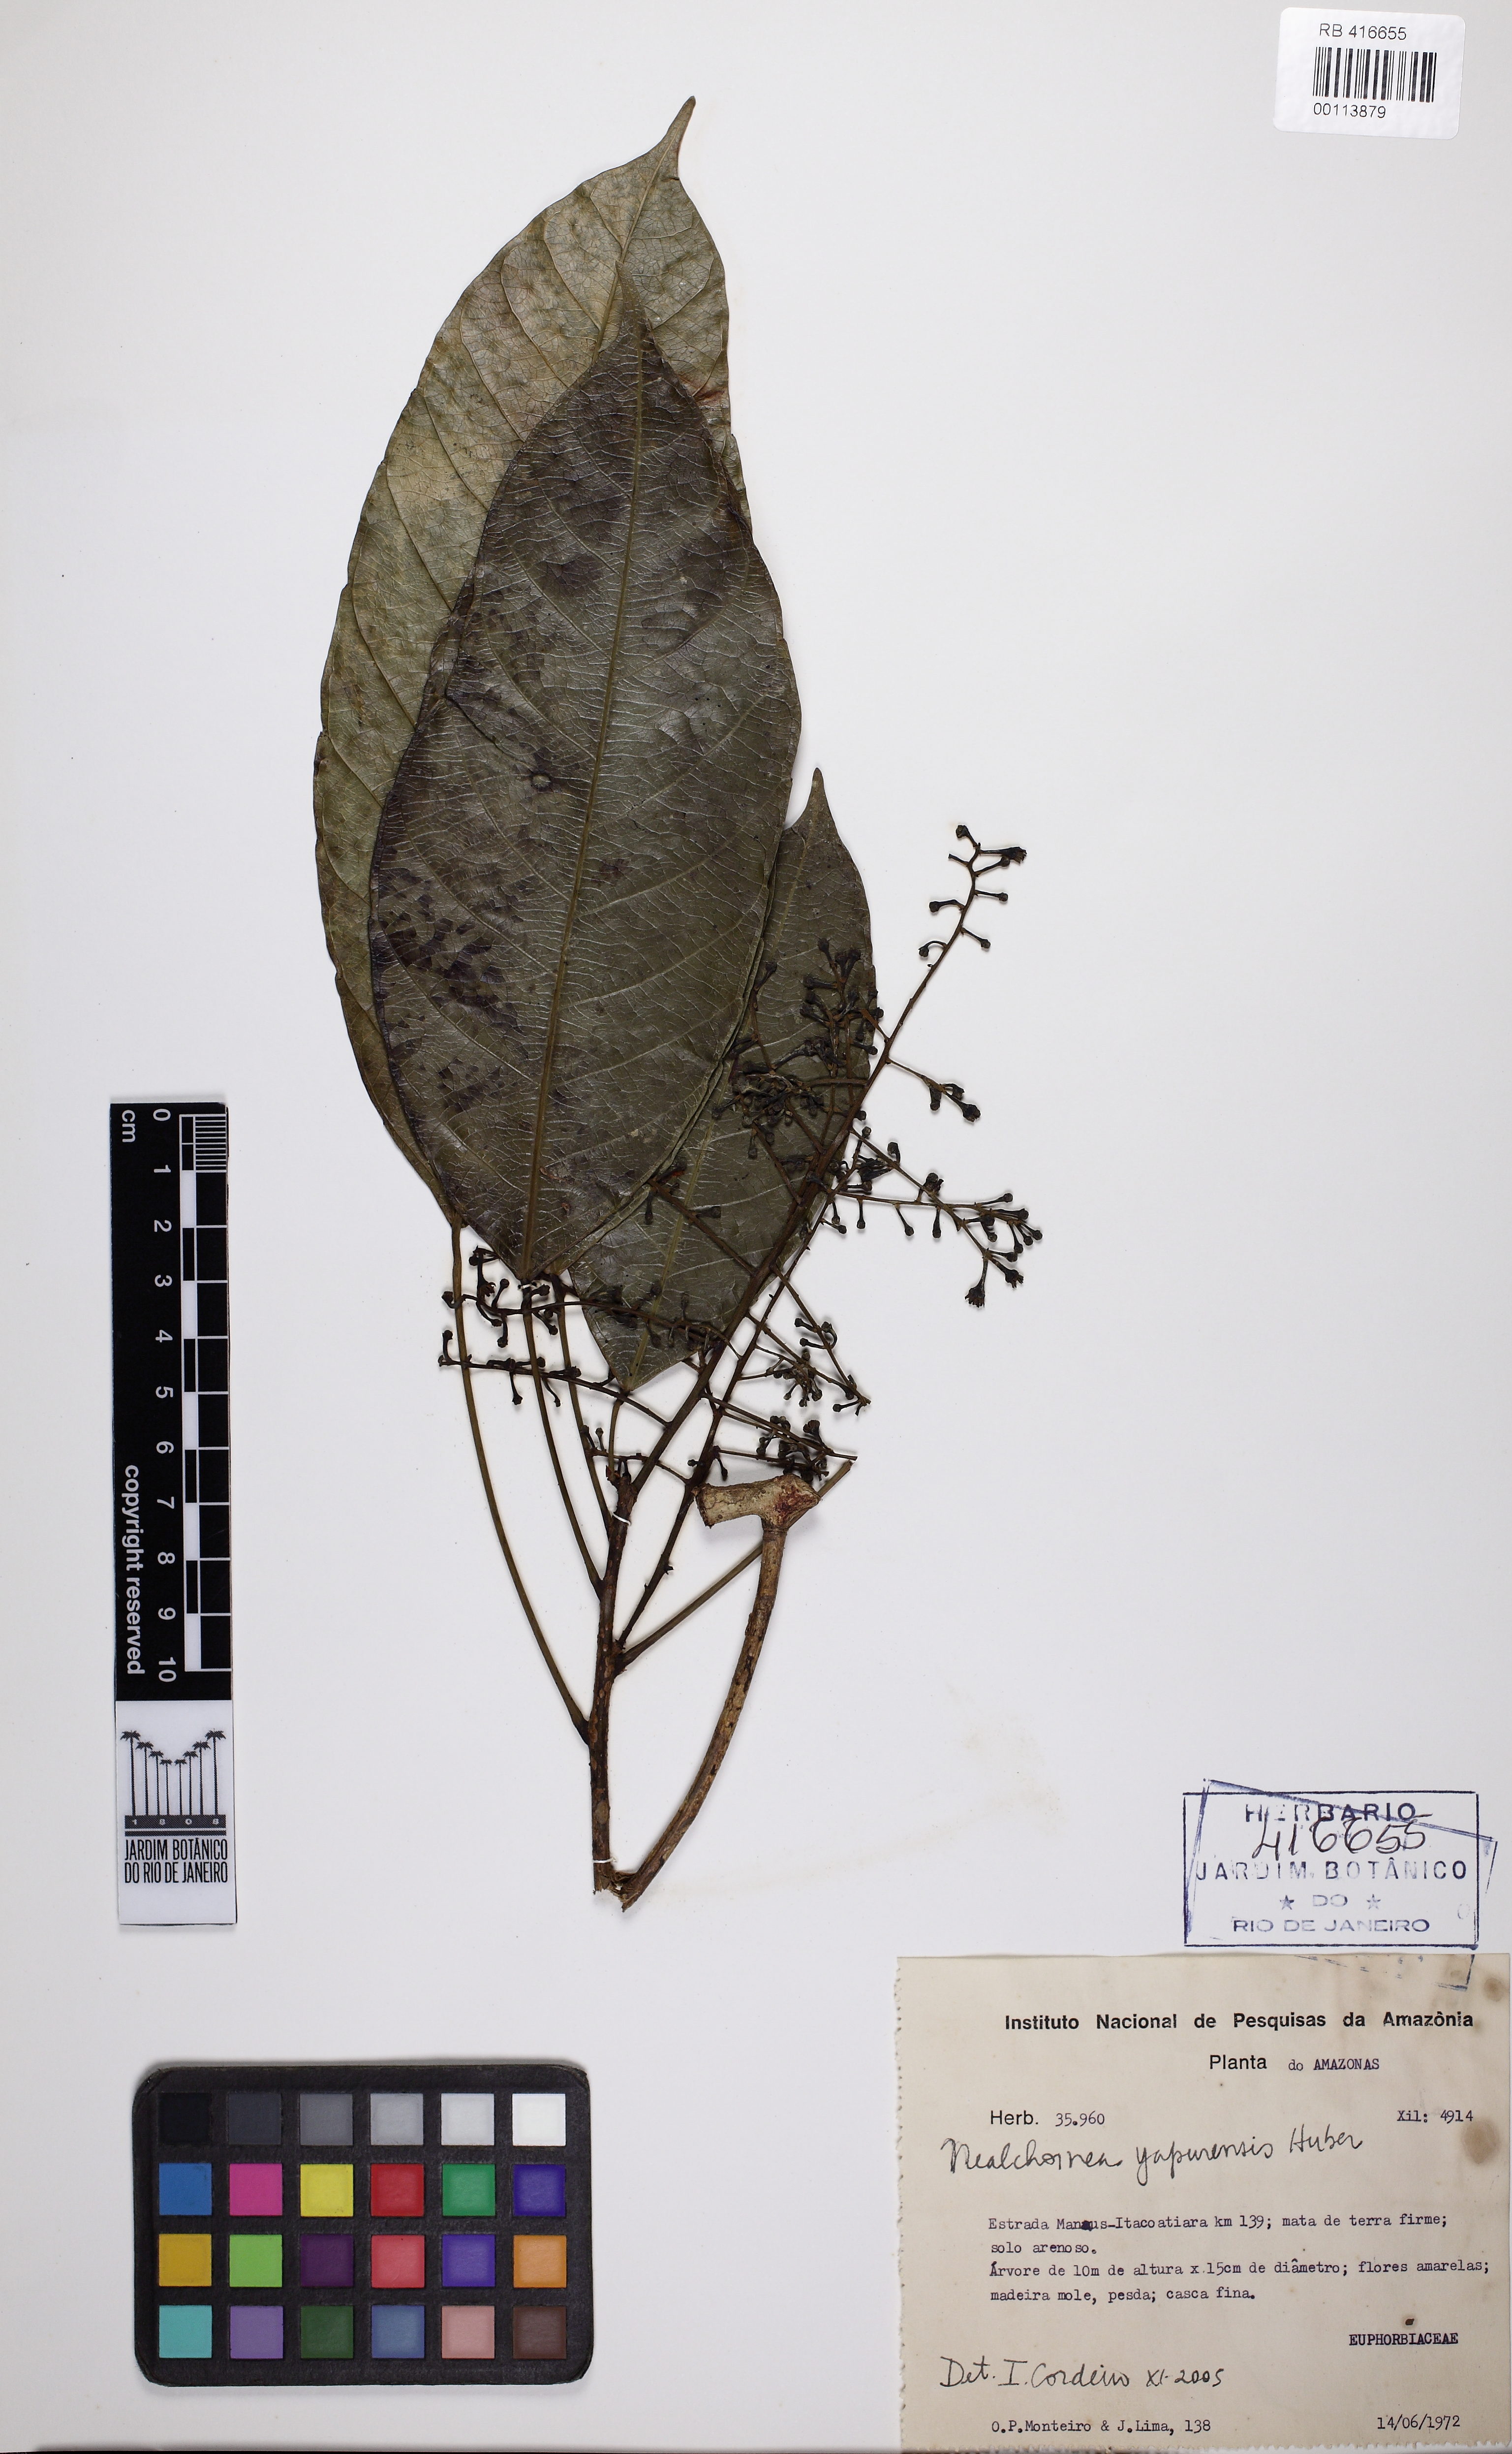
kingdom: Plantae
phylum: Tracheophyta
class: Magnoliopsida
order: Malpighiales
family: Euphorbiaceae
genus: Nealchornea
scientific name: Nealchornea yapurensis
